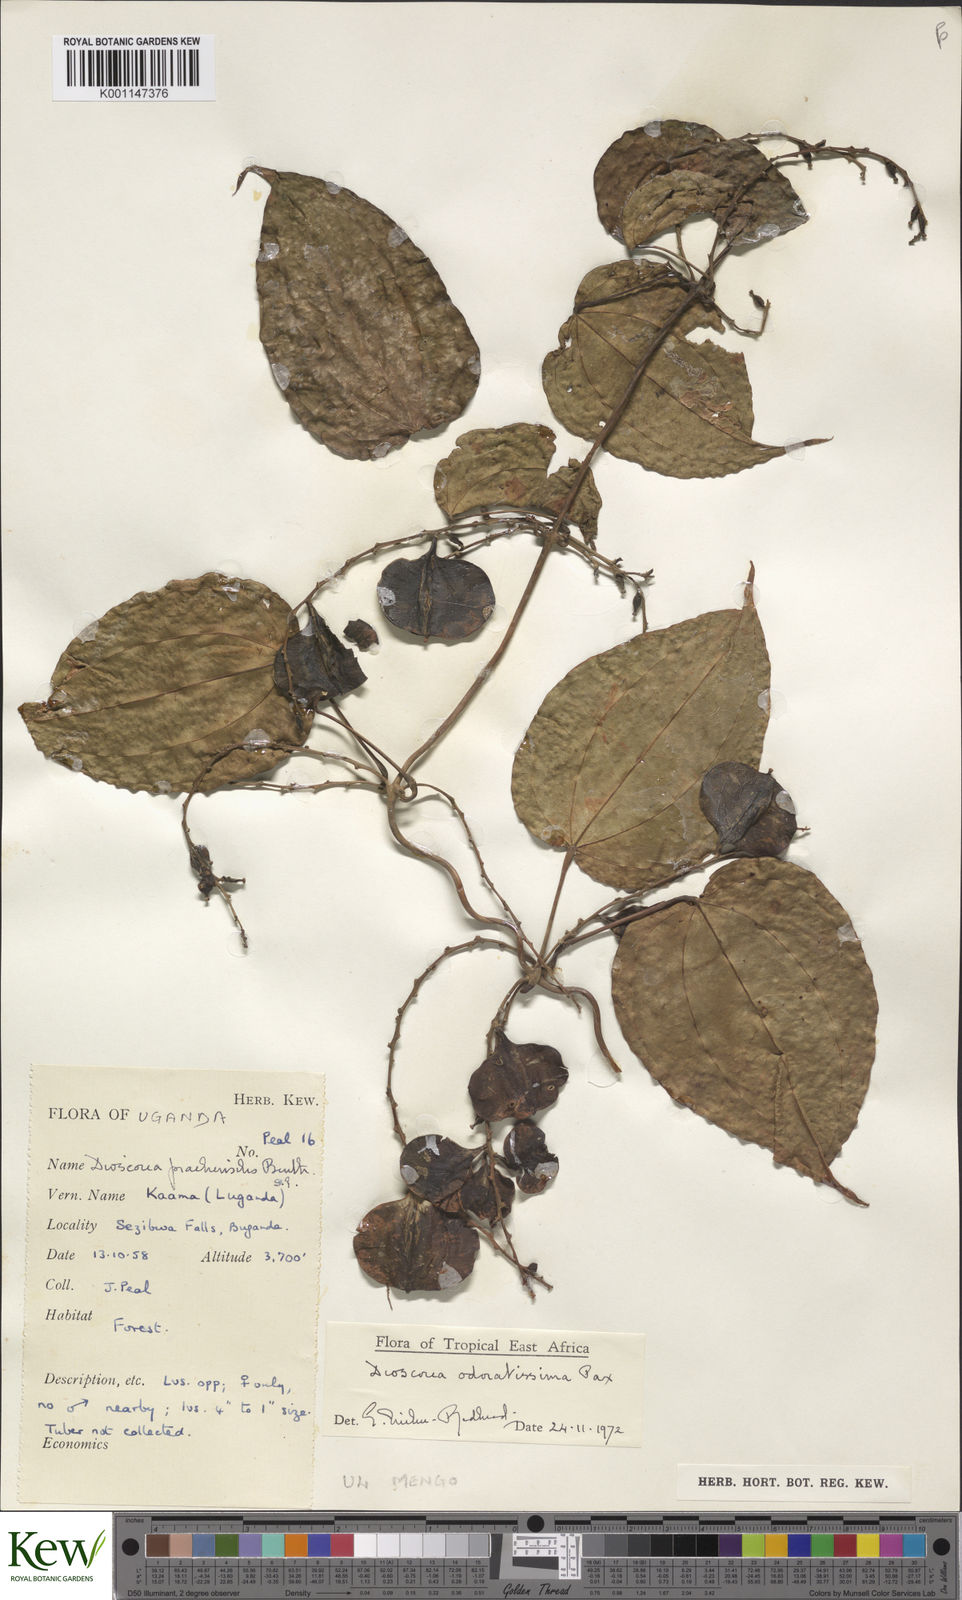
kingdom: Plantae
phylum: Tracheophyta
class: Liliopsida
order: Dioscoreales
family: Dioscoreaceae
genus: Dioscorea
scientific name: Dioscorea praehensilis
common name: Bush yam
